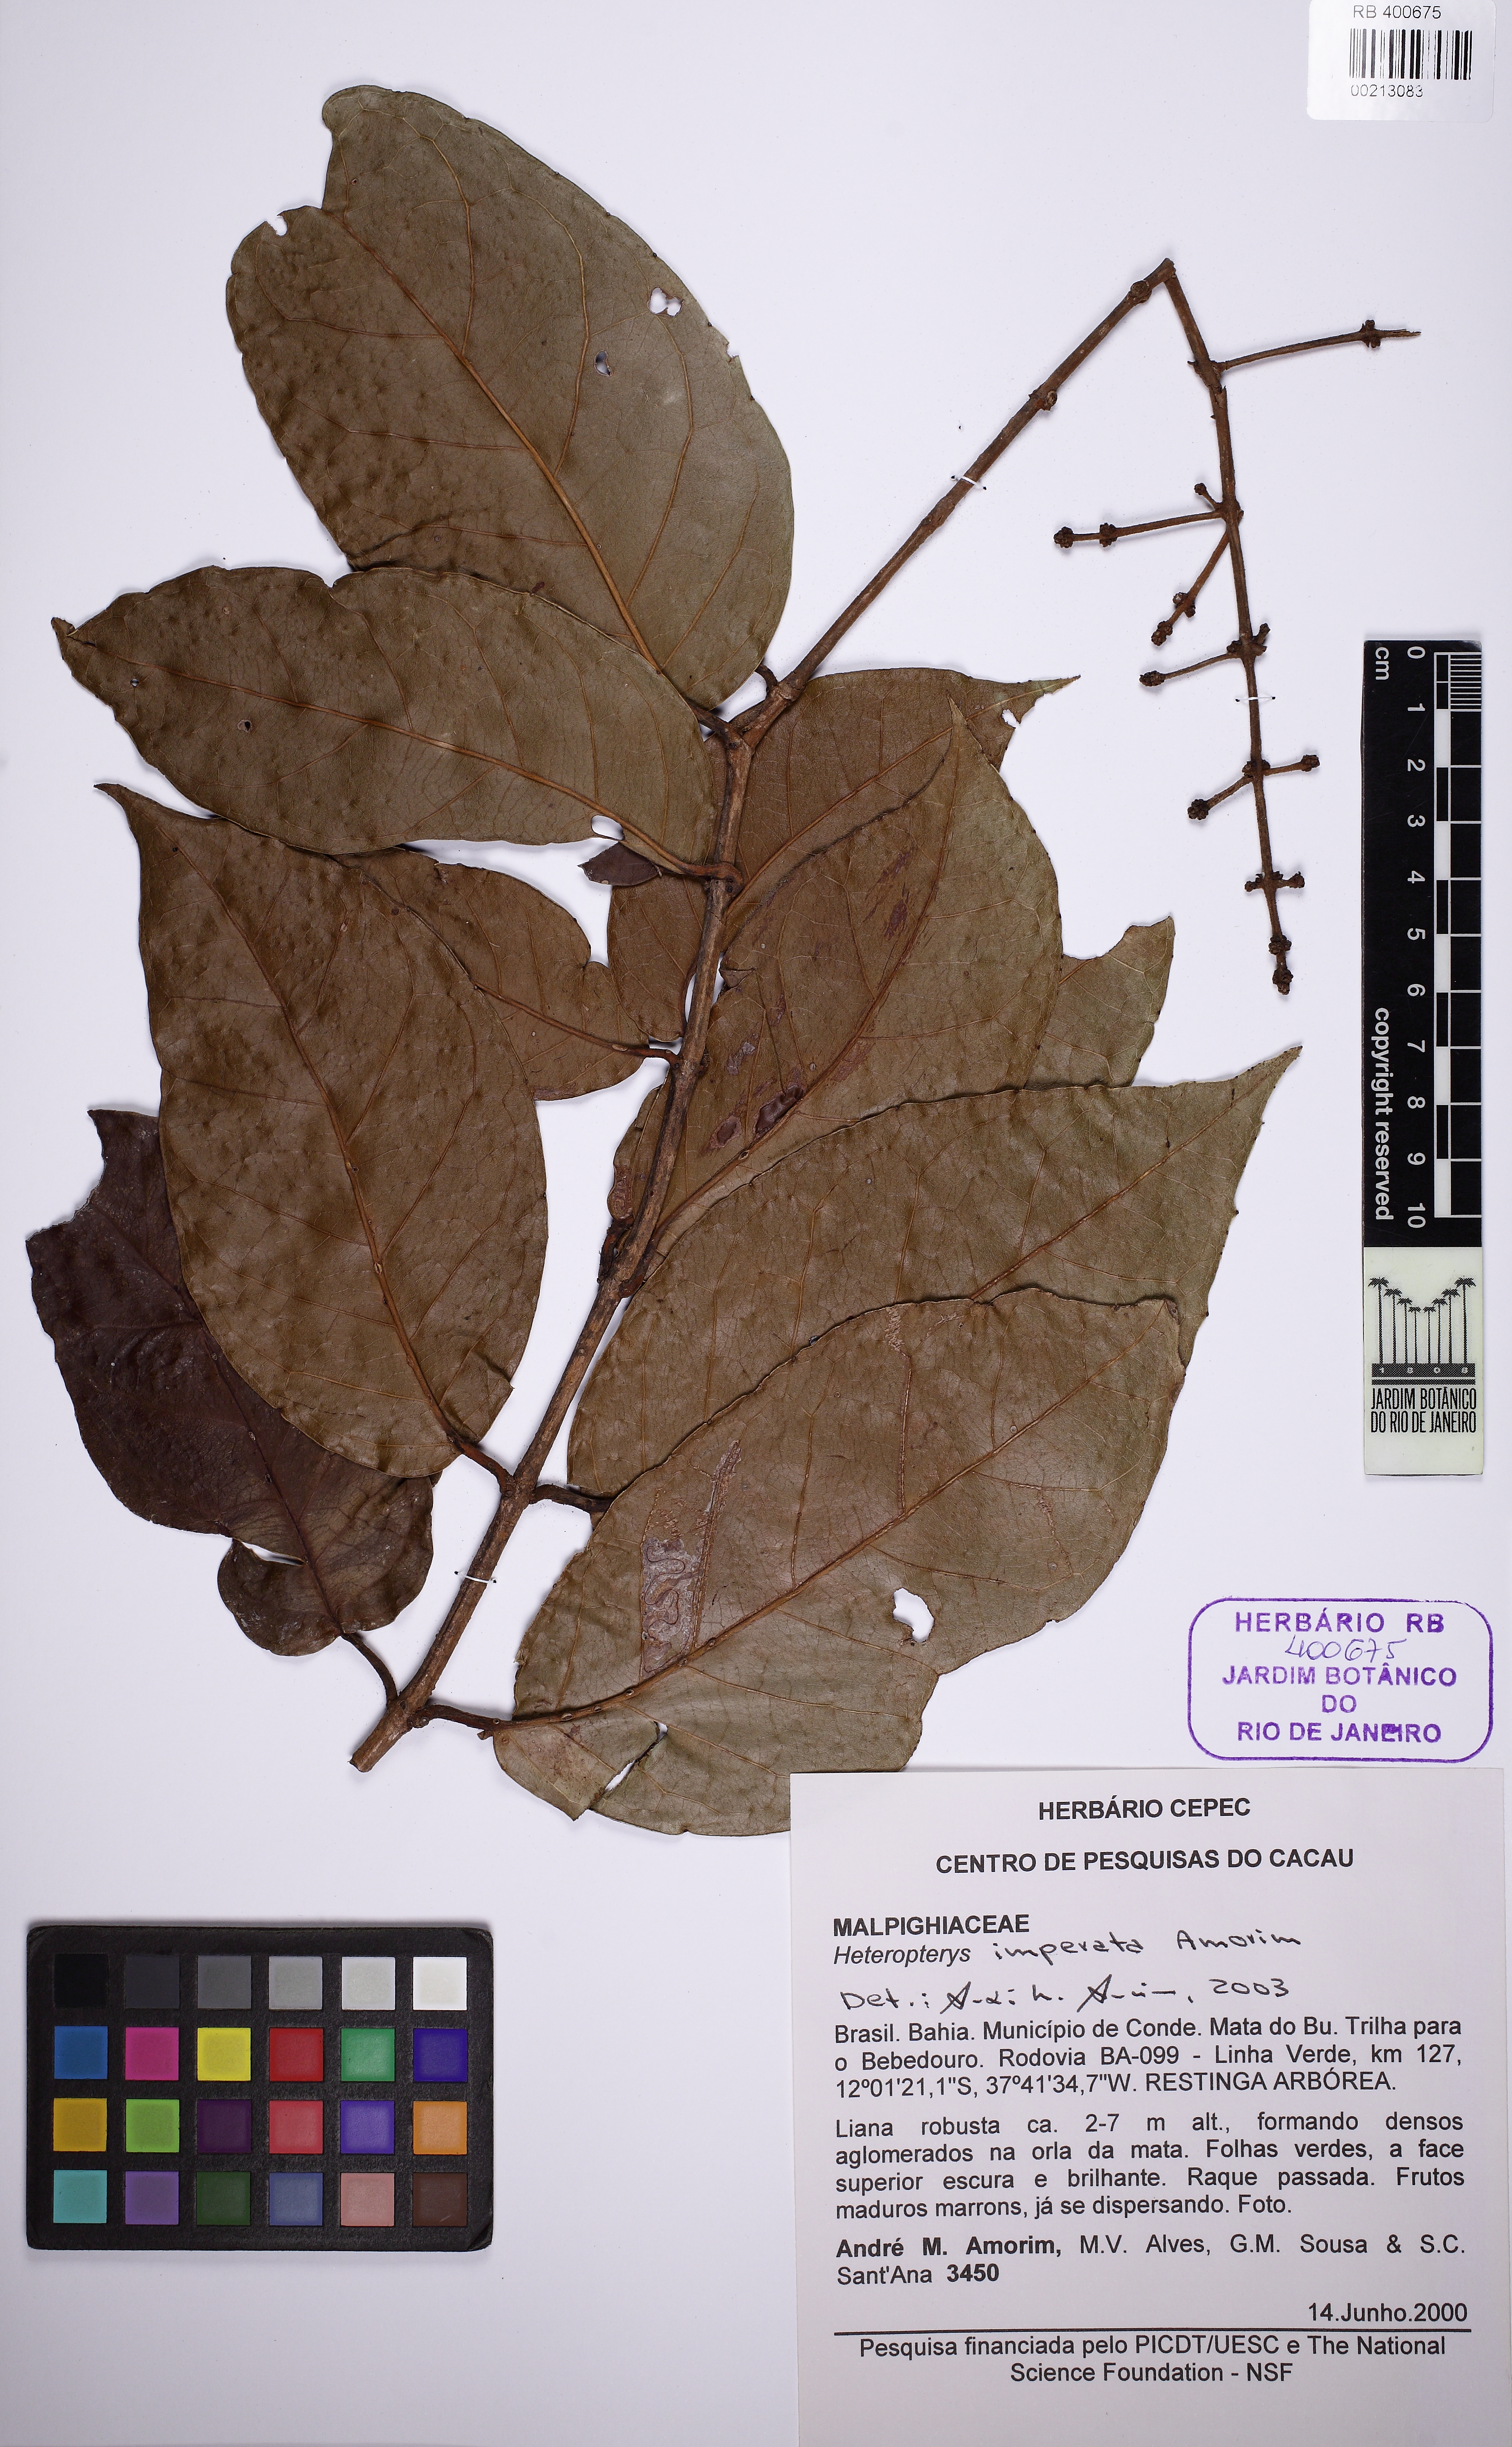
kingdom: Plantae
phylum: Tracheophyta
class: Magnoliopsida
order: Malpighiales
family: Malpighiaceae
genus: Heteropterys
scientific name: Heteropterys imperata
